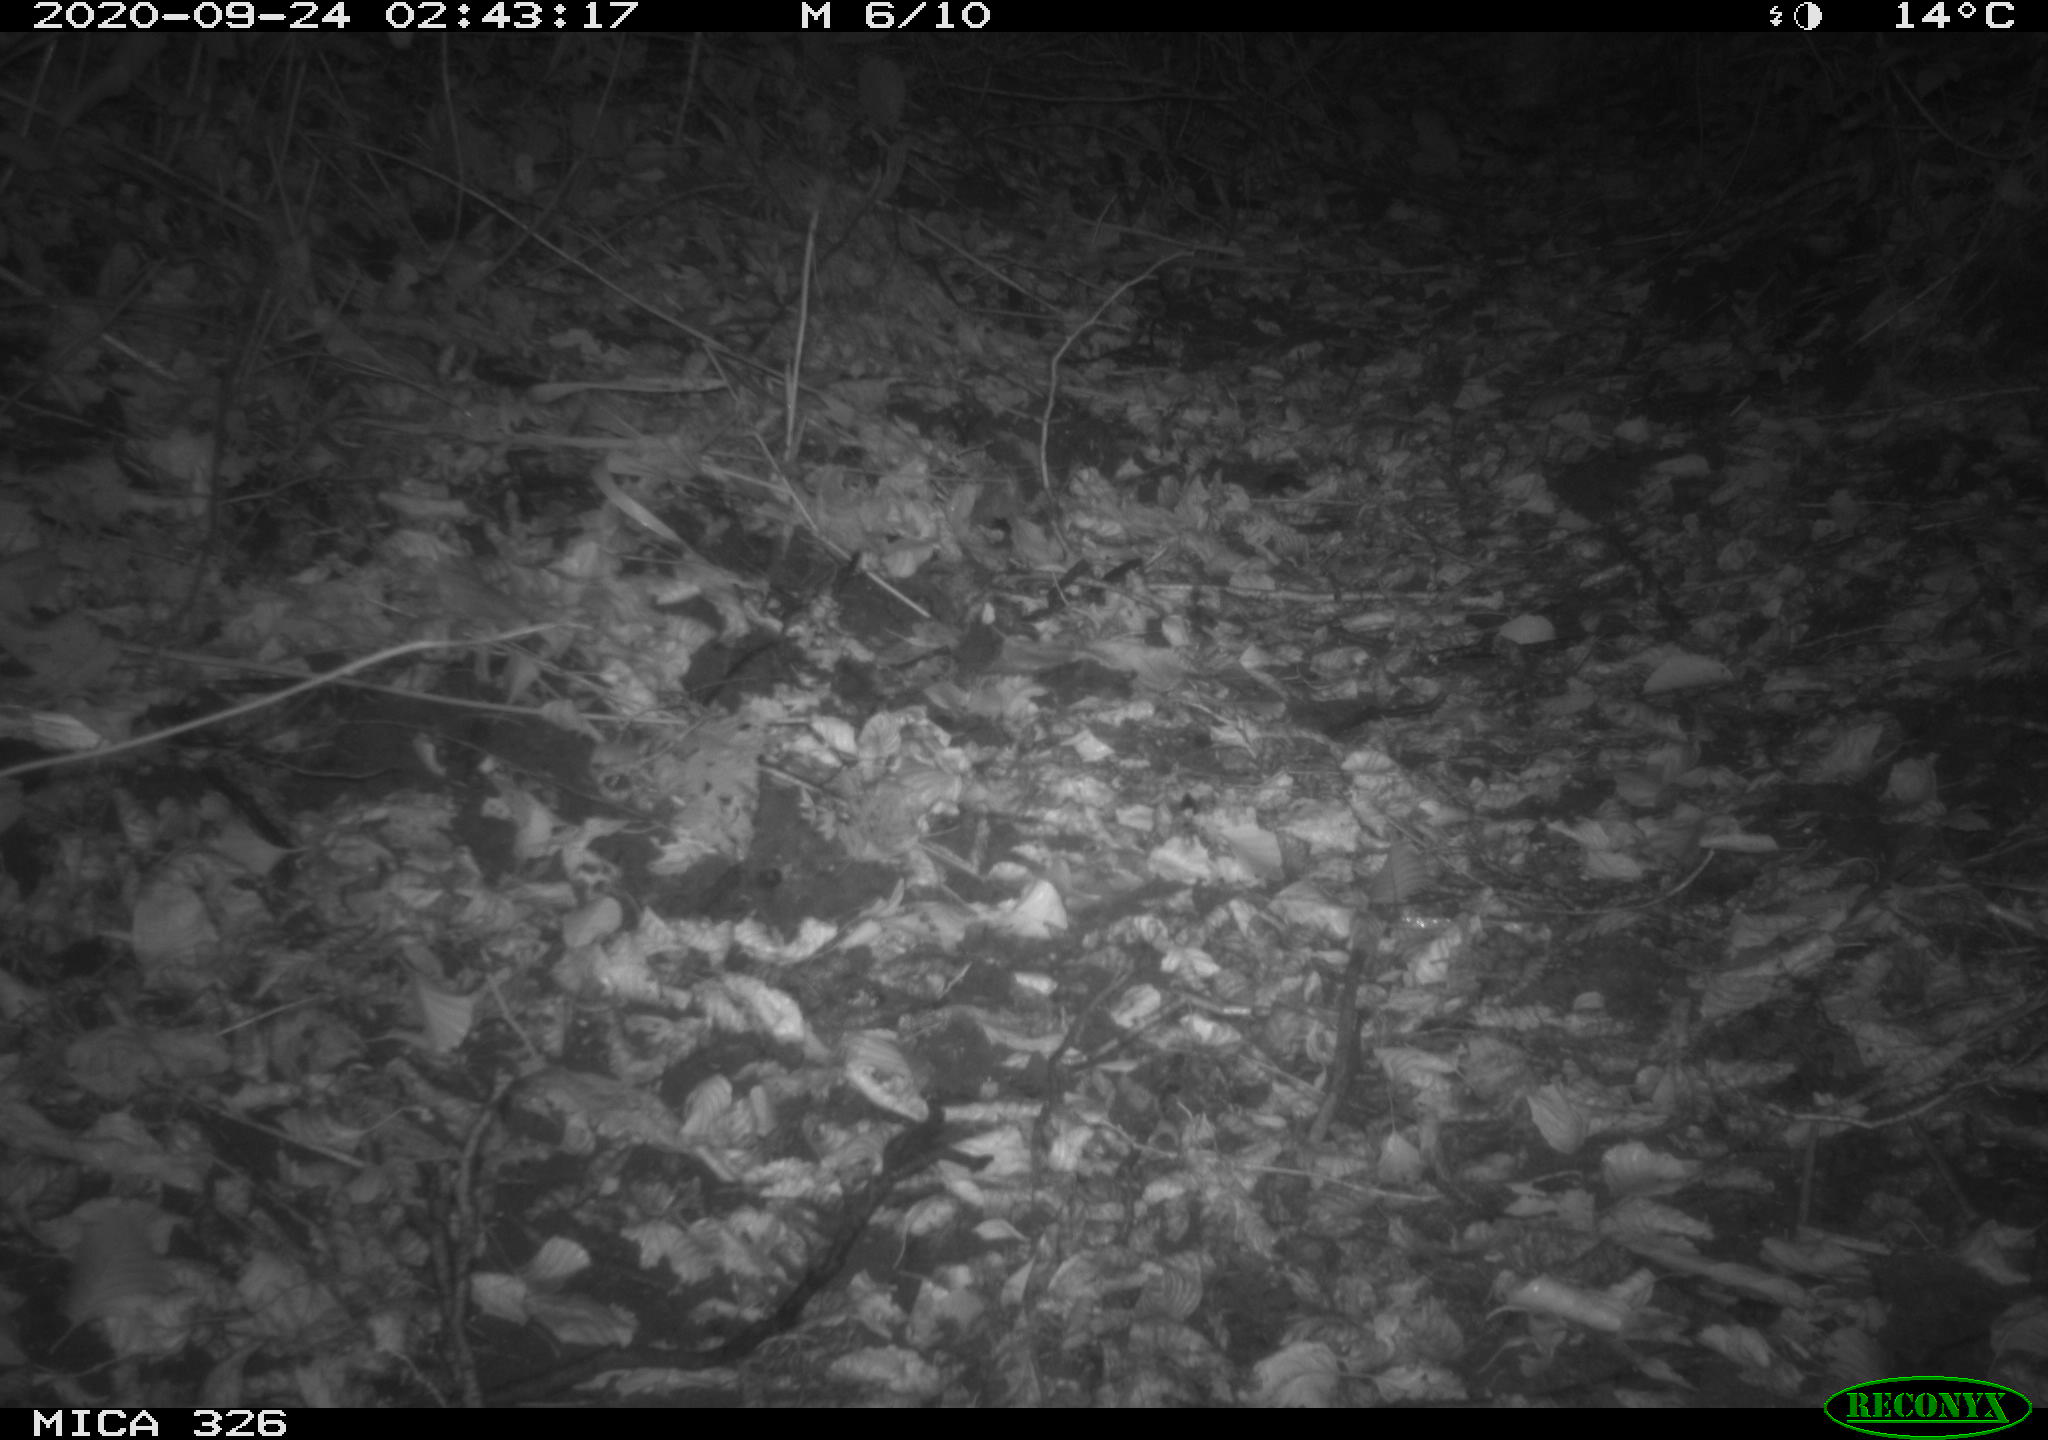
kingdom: Animalia
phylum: Chordata
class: Mammalia
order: Carnivora
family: Mustelidae
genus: Lutra
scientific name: Lutra lutra
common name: European otter
